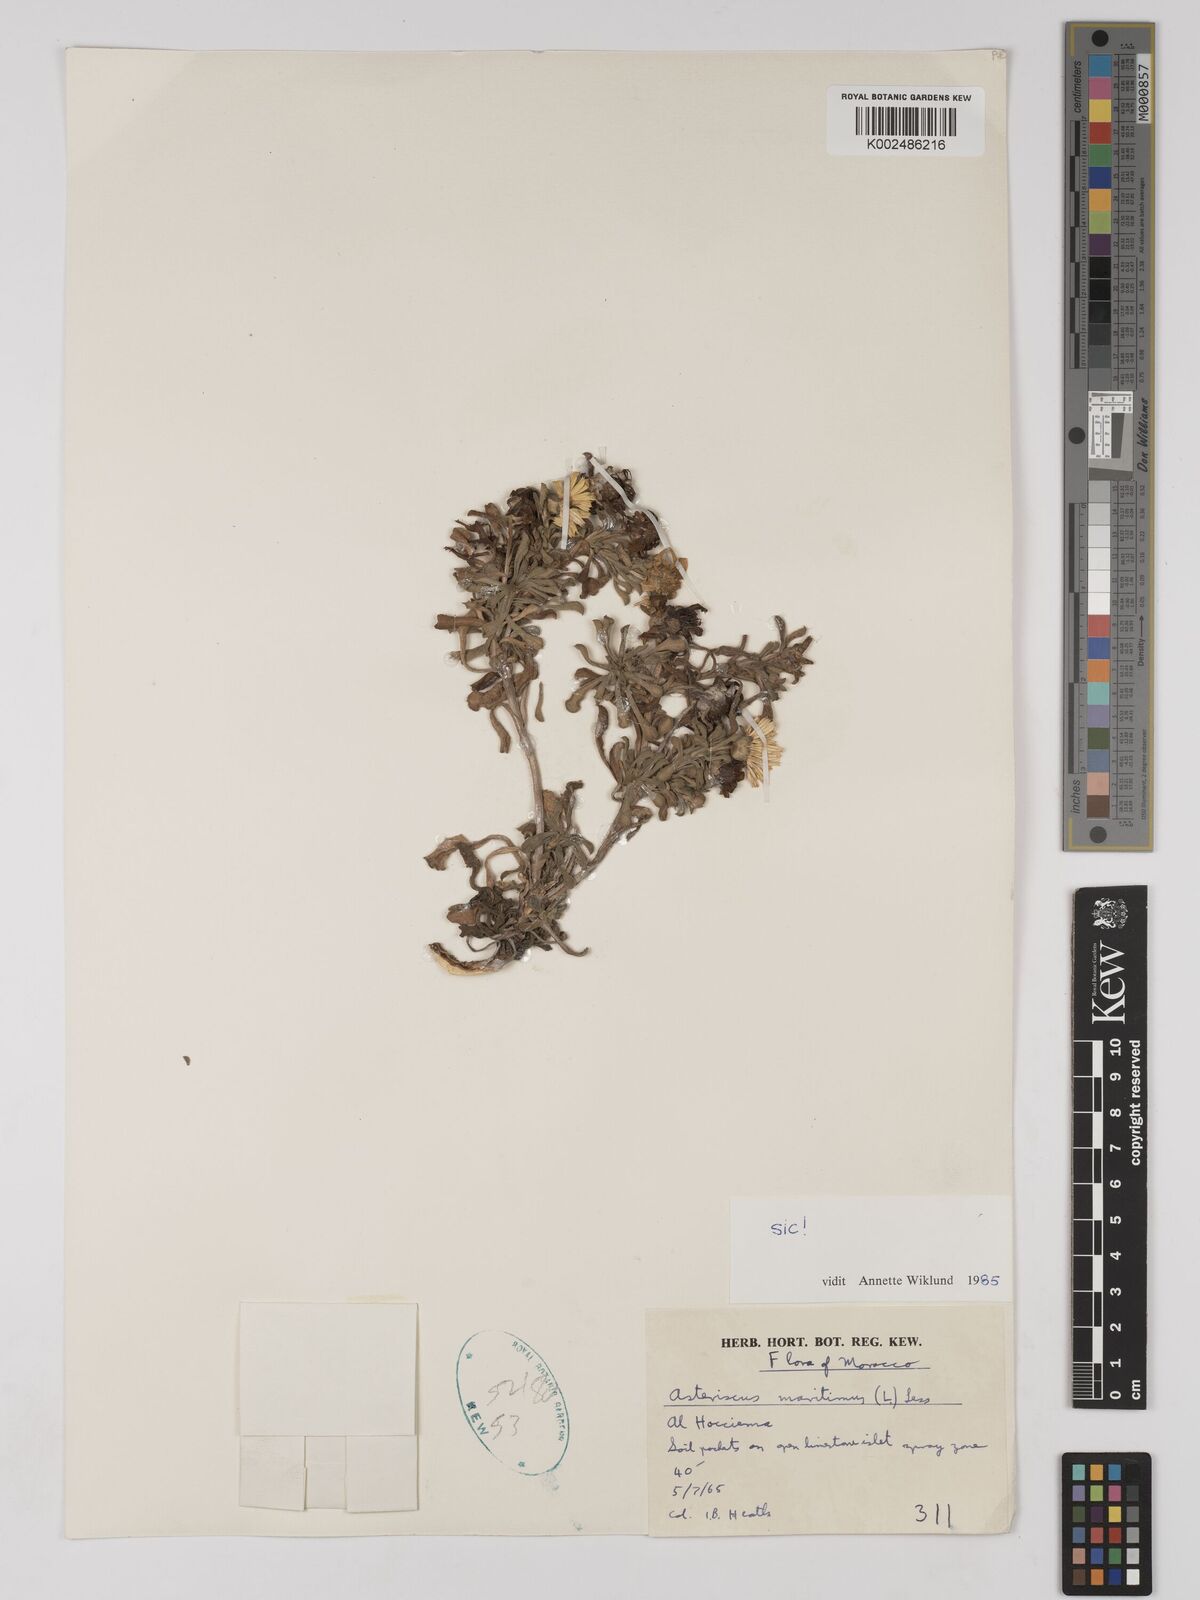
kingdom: Plantae
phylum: Tracheophyta
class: Magnoliopsida
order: Asterales
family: Asteraceae
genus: Pallenis
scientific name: Pallenis maritima
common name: Golden coin daisy
